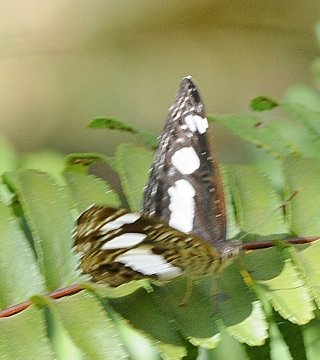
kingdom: Animalia
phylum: Arthropoda
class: Insecta
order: Lepidoptera
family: Nymphalidae
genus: Neptis
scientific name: Neptis saclava
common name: Spotted Sailer
